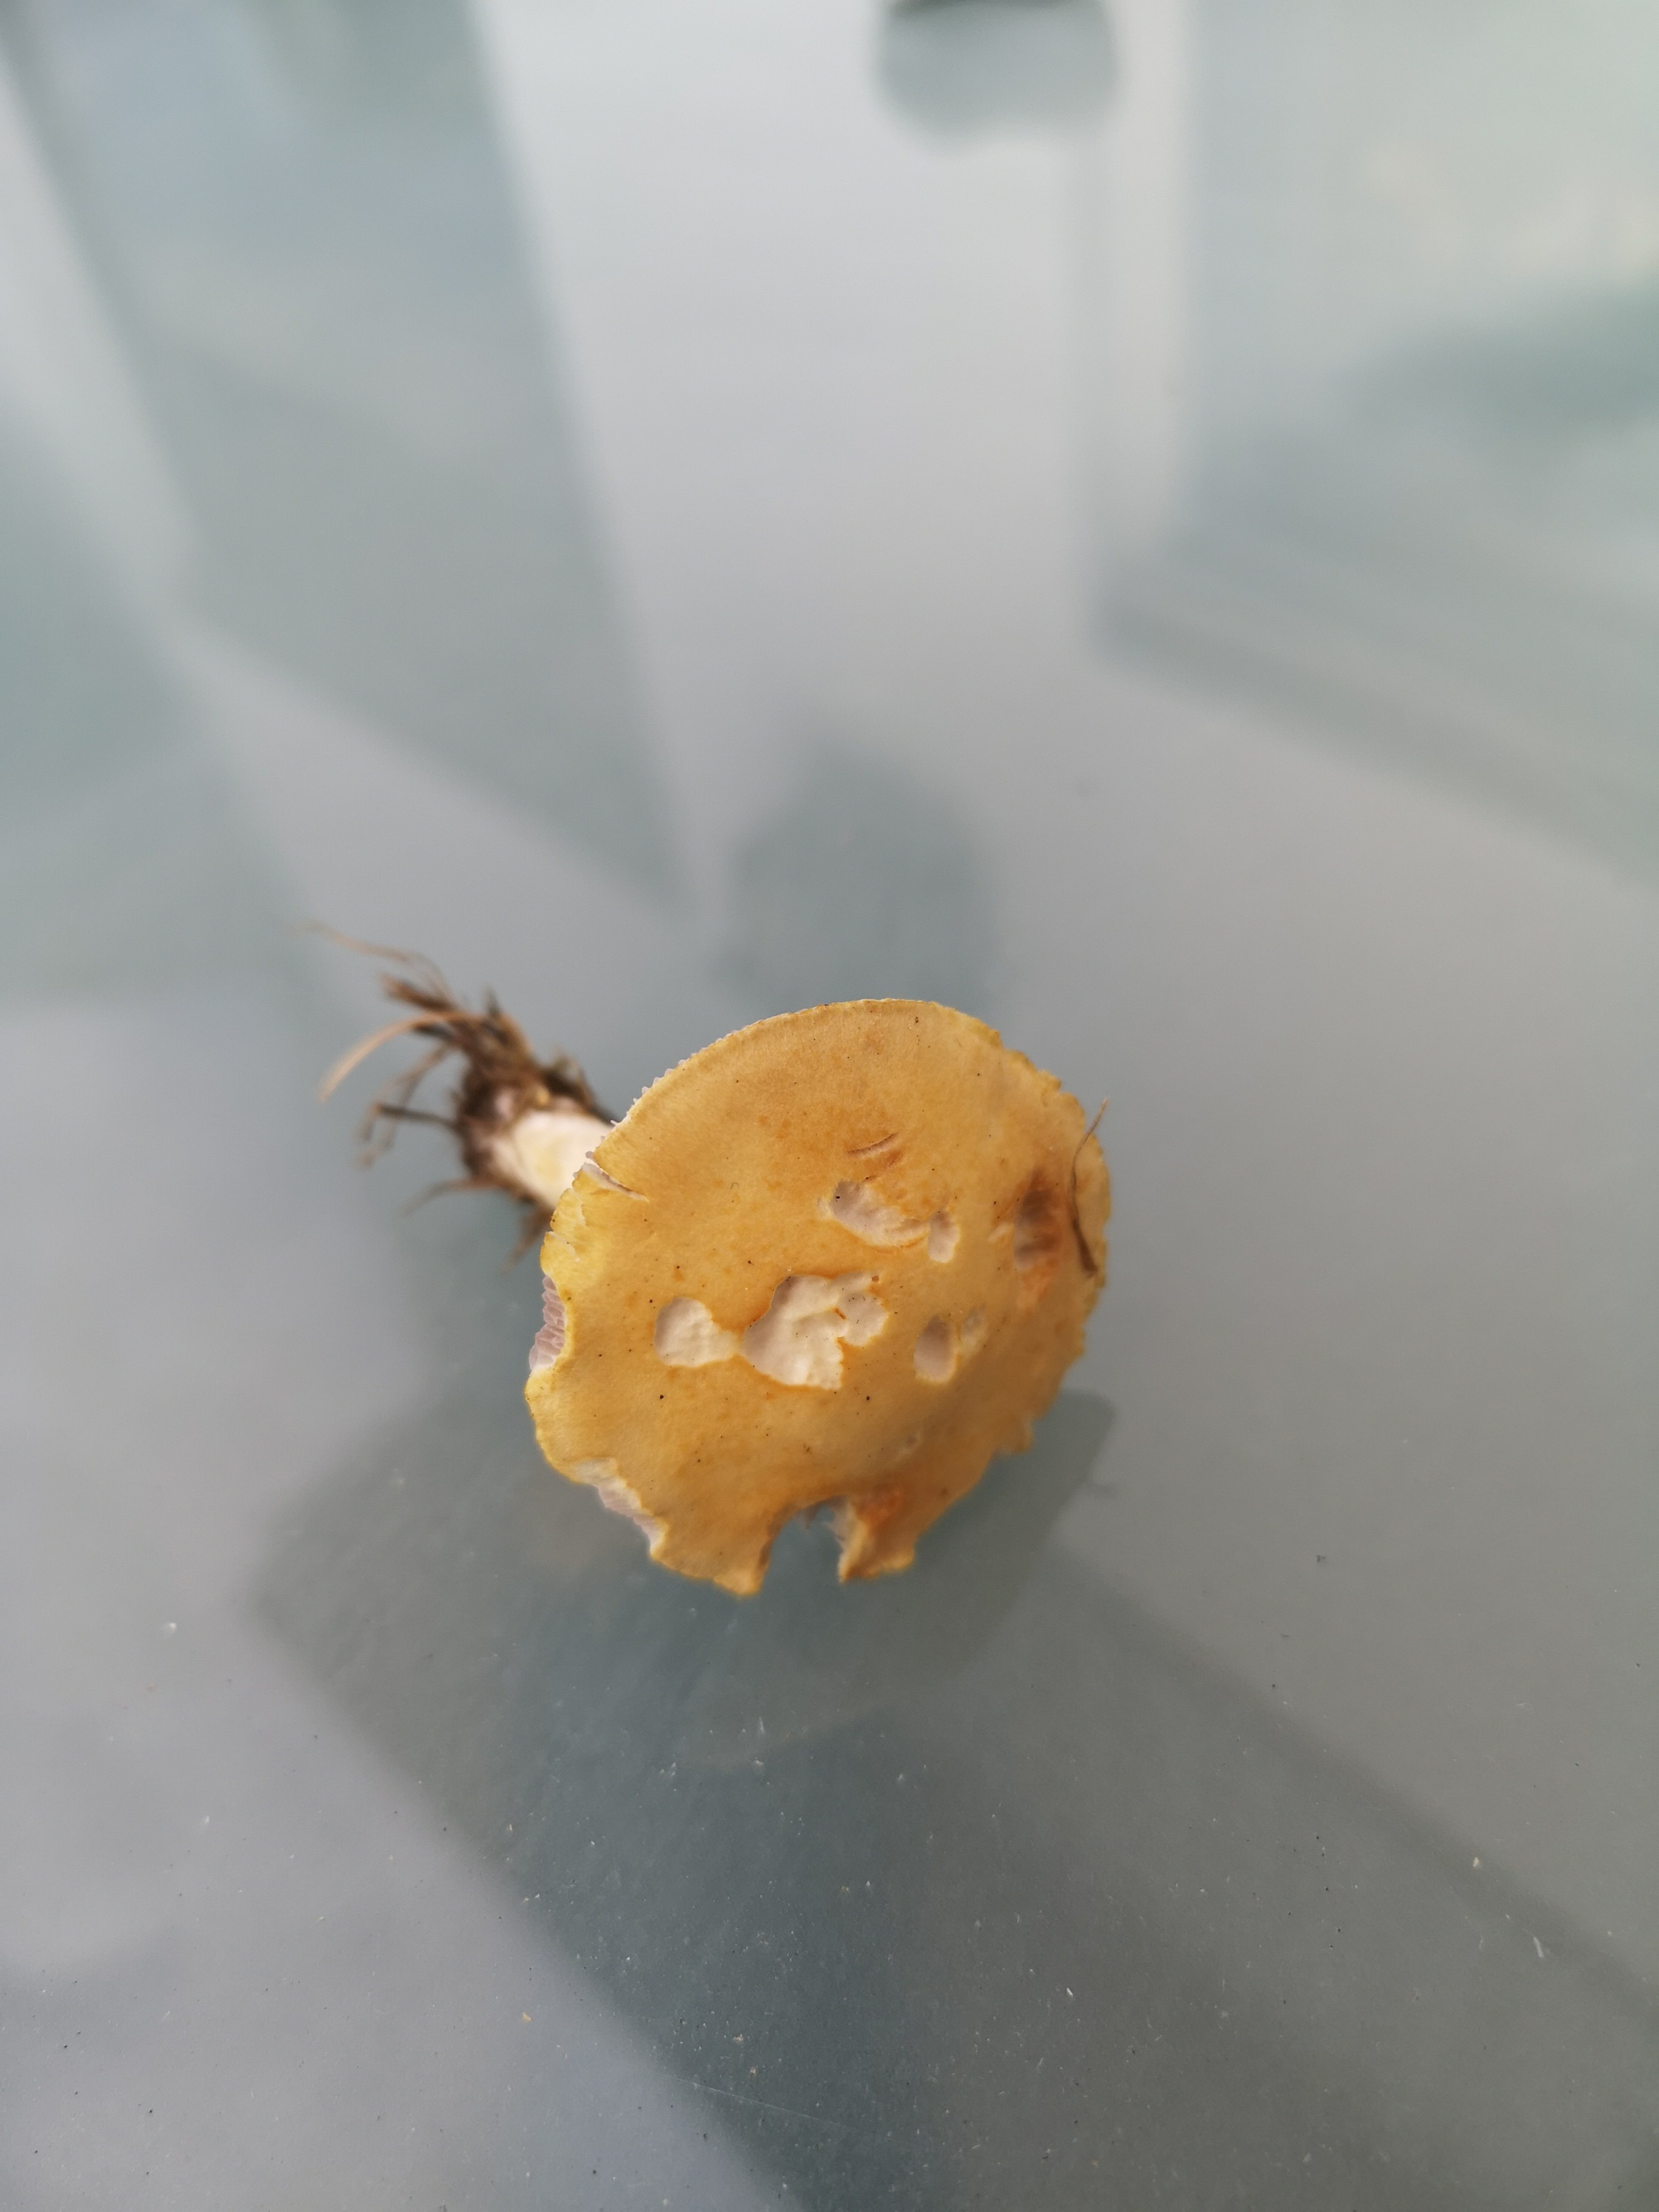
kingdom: Fungi
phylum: Basidiomycota
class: Agaricomycetes
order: Agaricales
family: Hymenogastraceae
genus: Psilocybe
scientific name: Psilocybe coronilla
